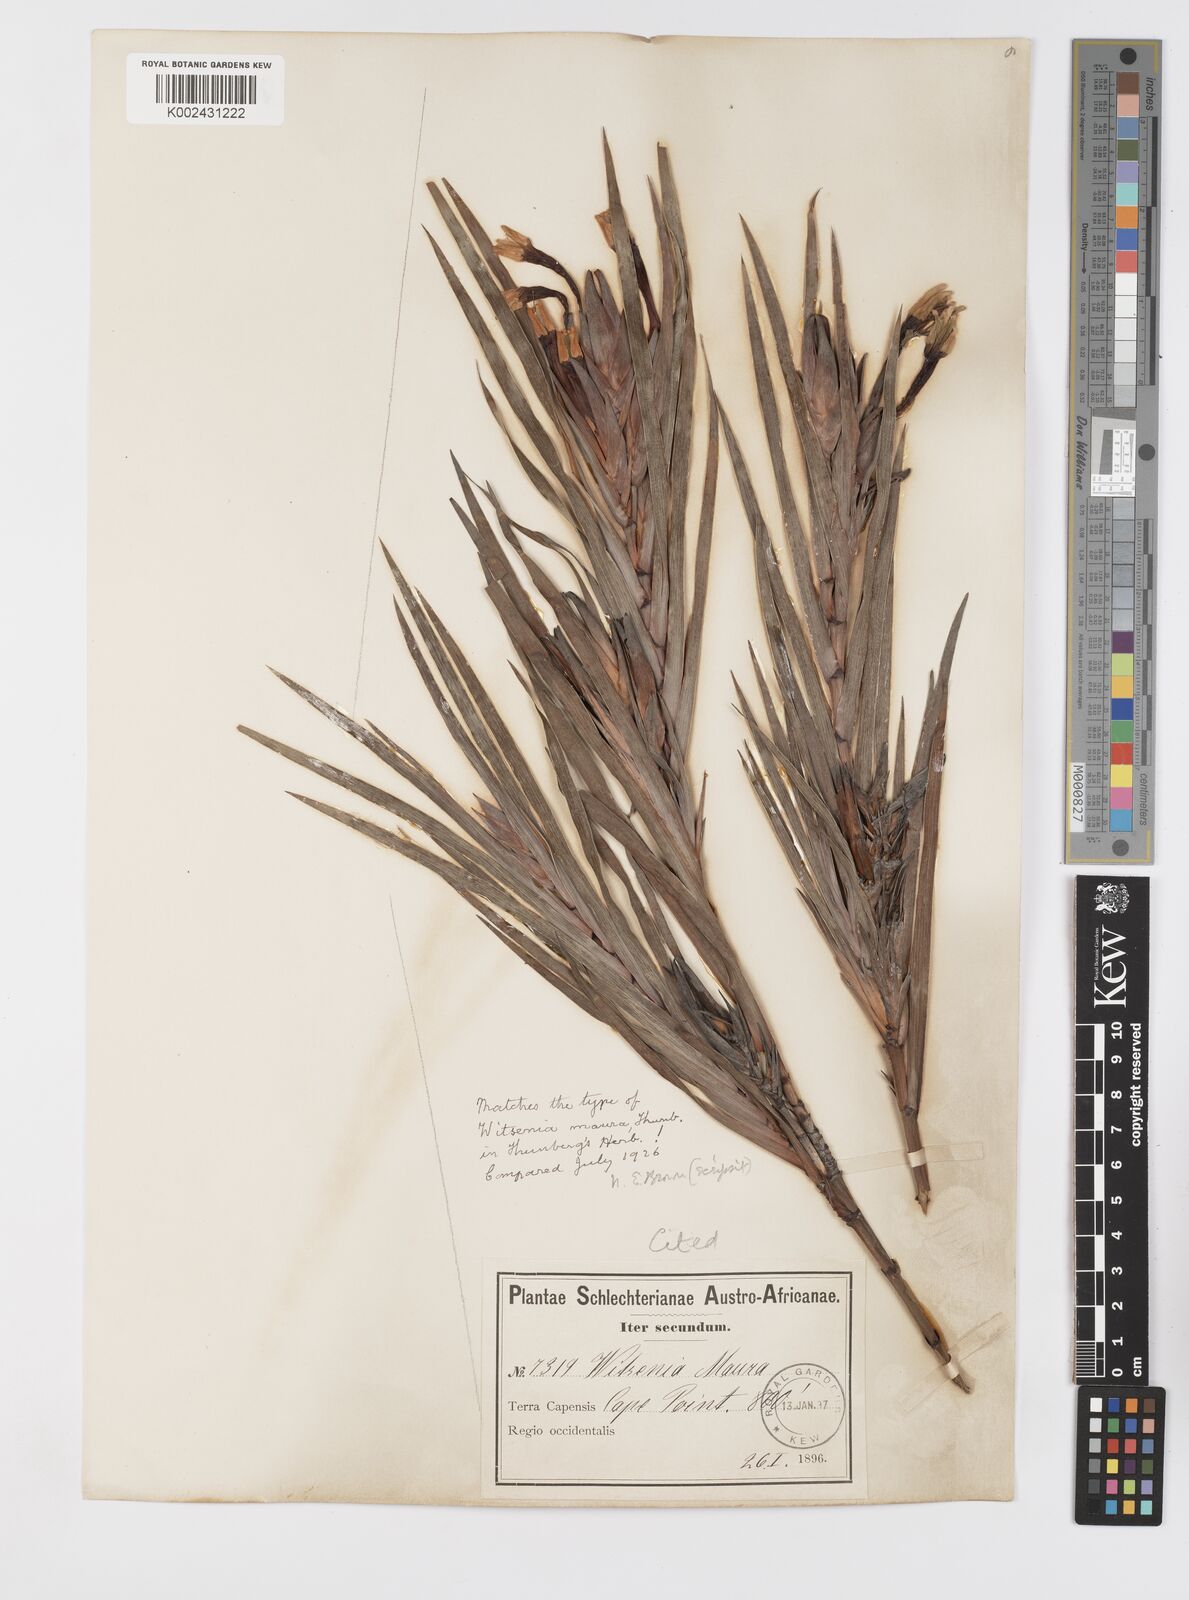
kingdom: Plantae
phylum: Tracheophyta
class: Liliopsida
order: Asparagales
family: Iridaceae
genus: Witsenia
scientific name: Witsenia maura
